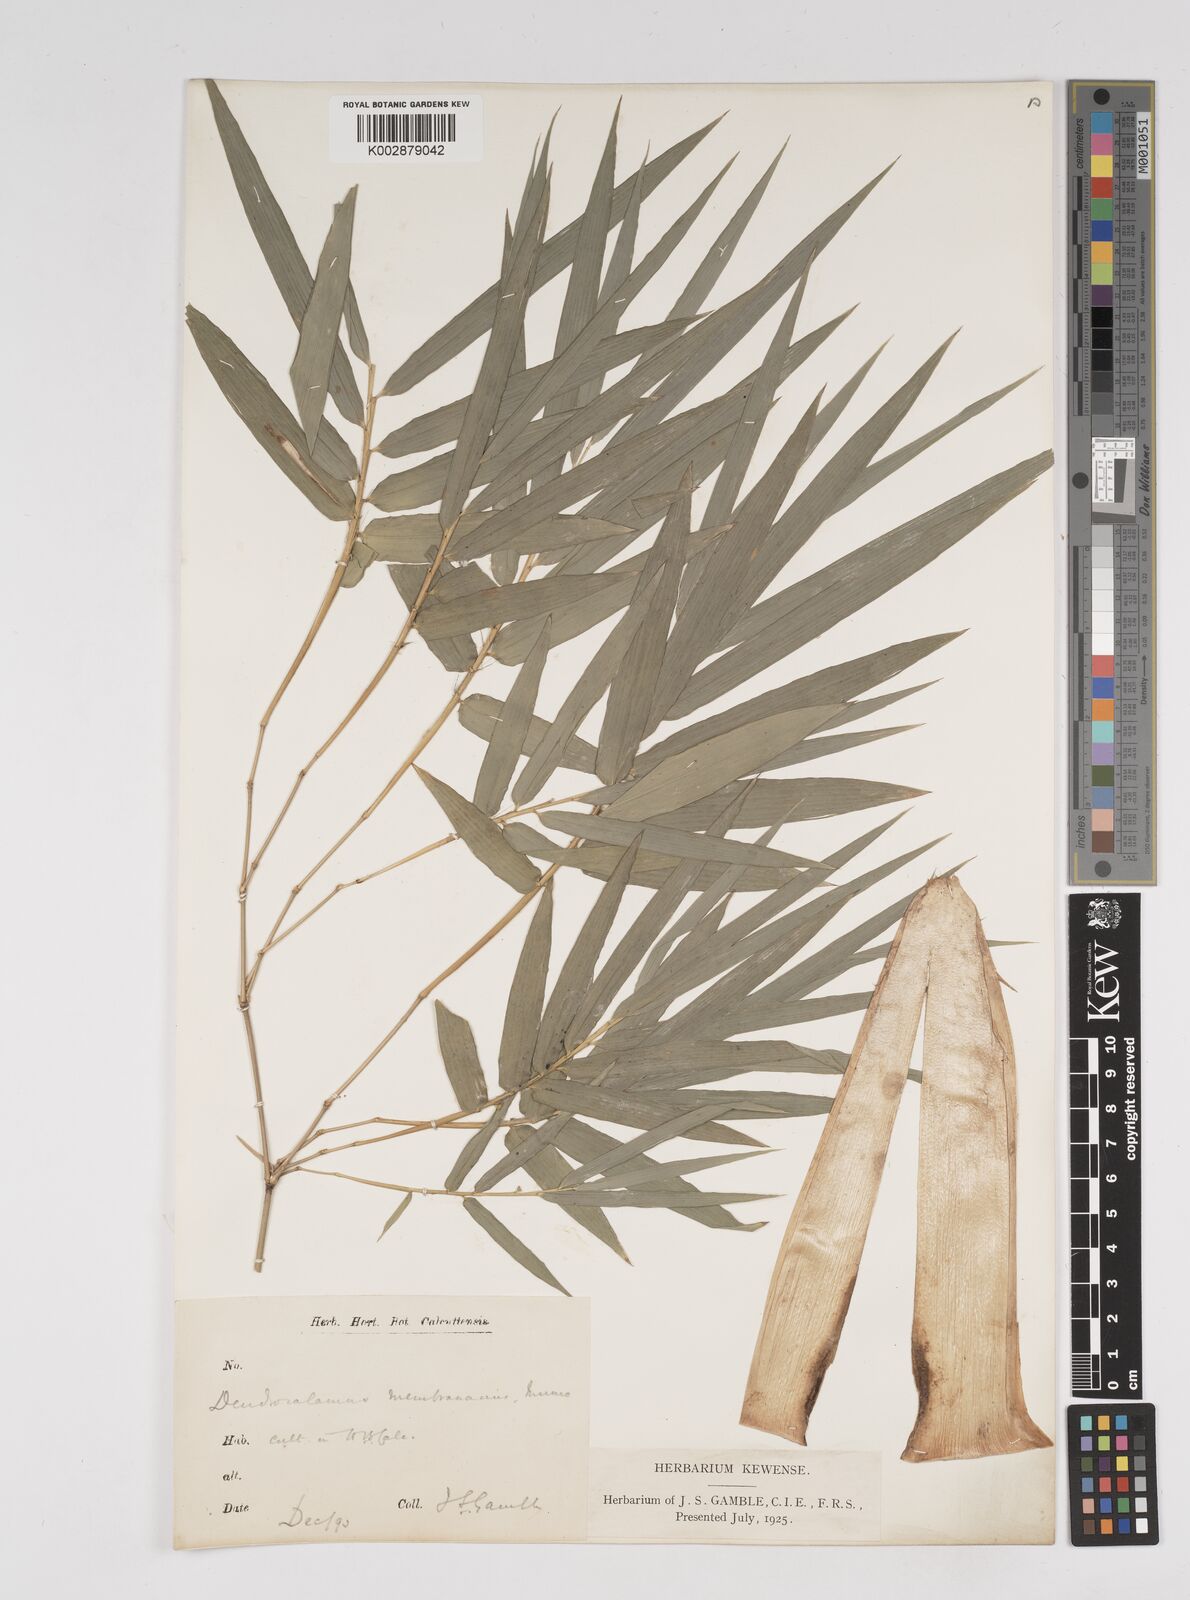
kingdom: Plantae
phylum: Tracheophyta
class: Liliopsida
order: Poales
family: Poaceae
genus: Dendrocalamus
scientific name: Dendrocalamus membranaceus
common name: White bamboo
